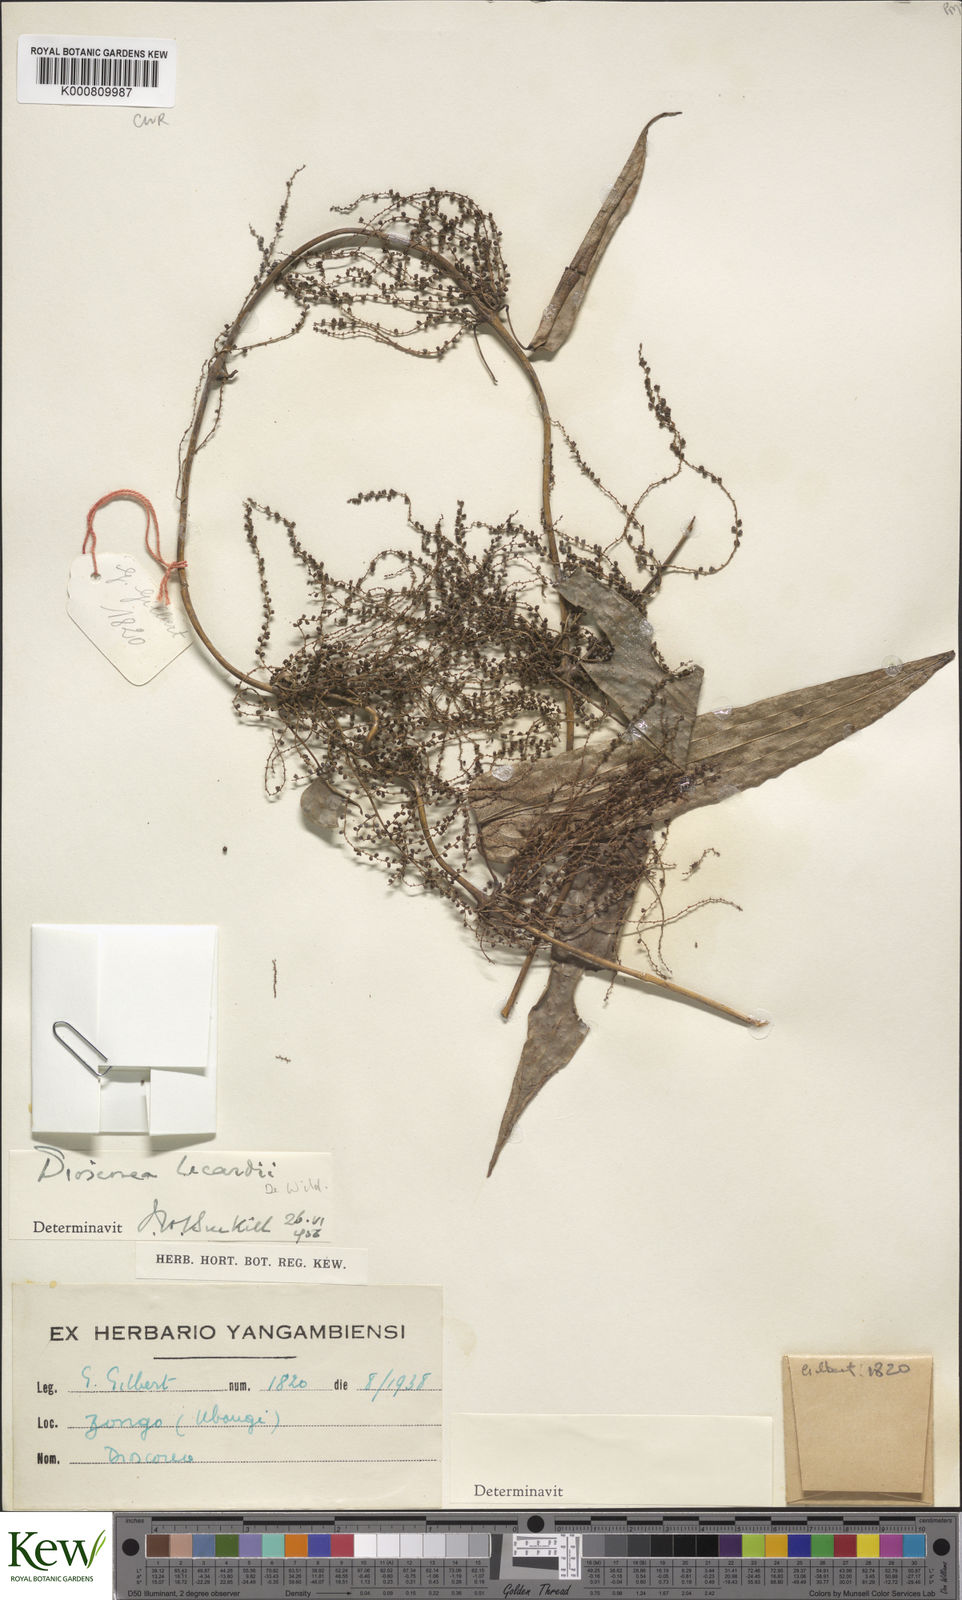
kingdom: Plantae
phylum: Tracheophyta
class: Liliopsida
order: Dioscoreales
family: Dioscoreaceae
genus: Dioscorea
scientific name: Dioscorea sagittifolia
